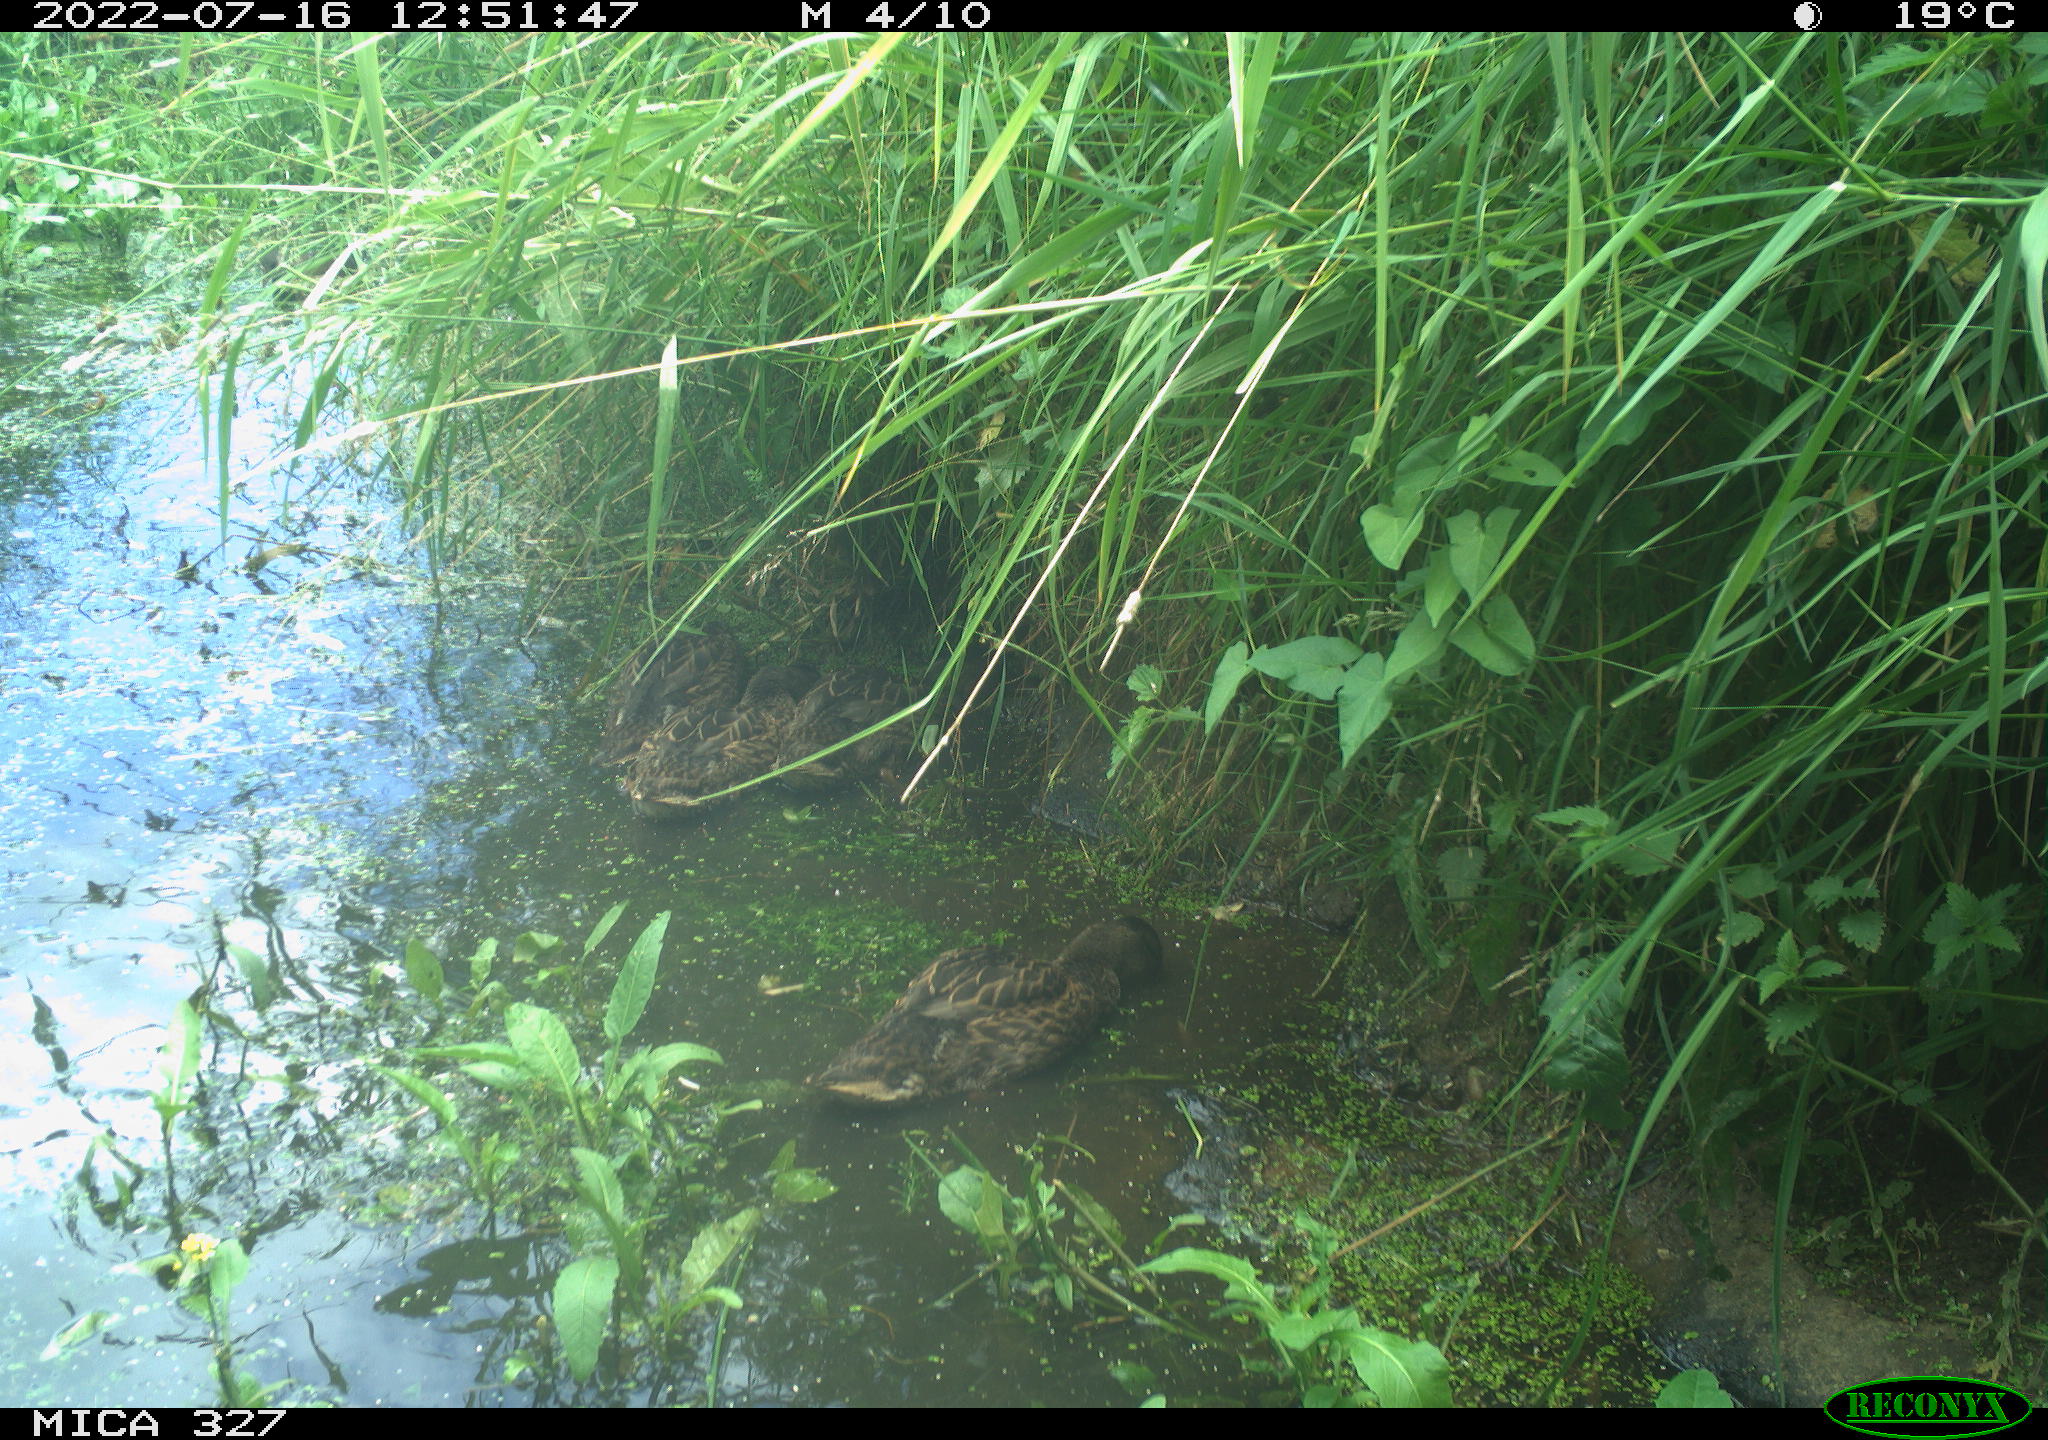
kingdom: Animalia
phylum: Chordata
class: Aves
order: Anseriformes
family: Anatidae
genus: Anas
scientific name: Anas
